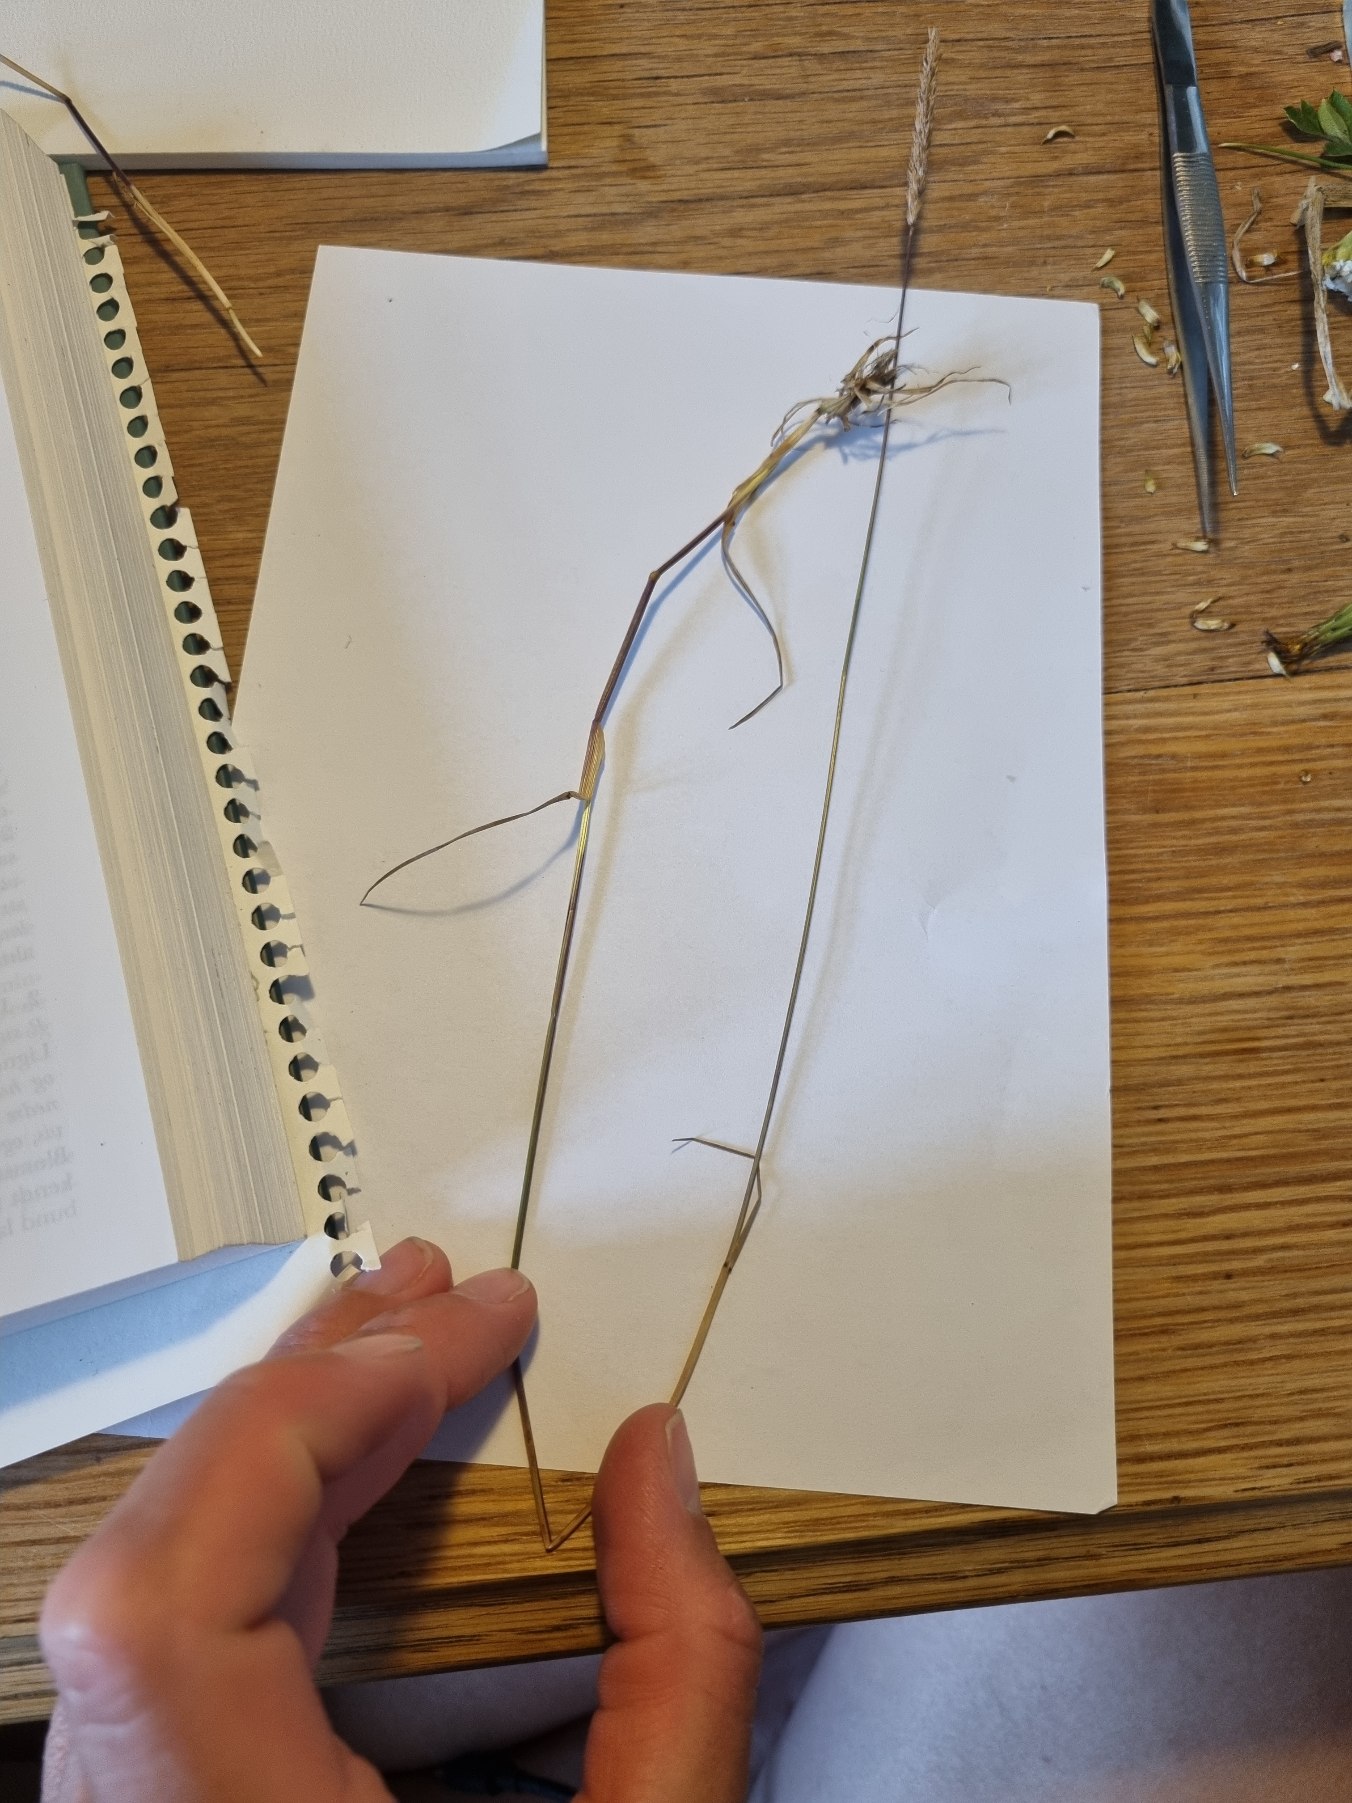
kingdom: Plantae
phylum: Tracheophyta
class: Liliopsida
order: Poales
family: Poaceae
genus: Cynosurus
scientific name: Cynosurus cristatus
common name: Kamgræs
